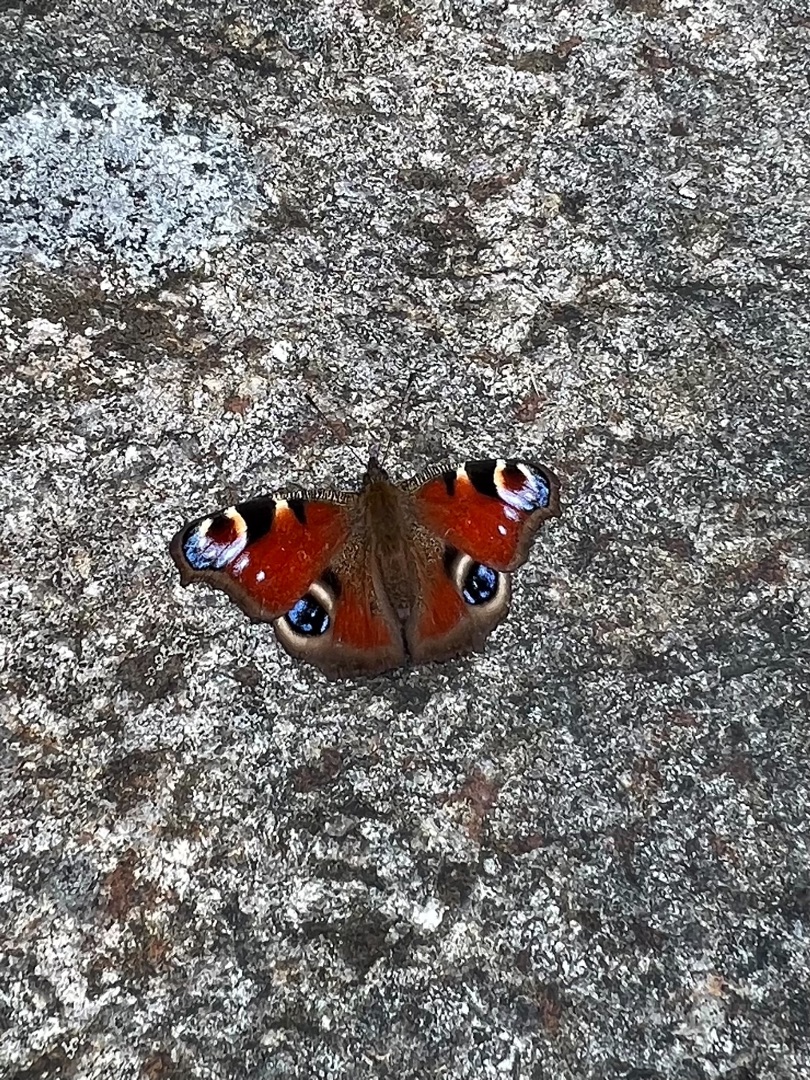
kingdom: Animalia
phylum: Arthropoda
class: Insecta
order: Lepidoptera
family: Nymphalidae
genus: Aglais
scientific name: Aglais io
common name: Dagpåfugleøje
